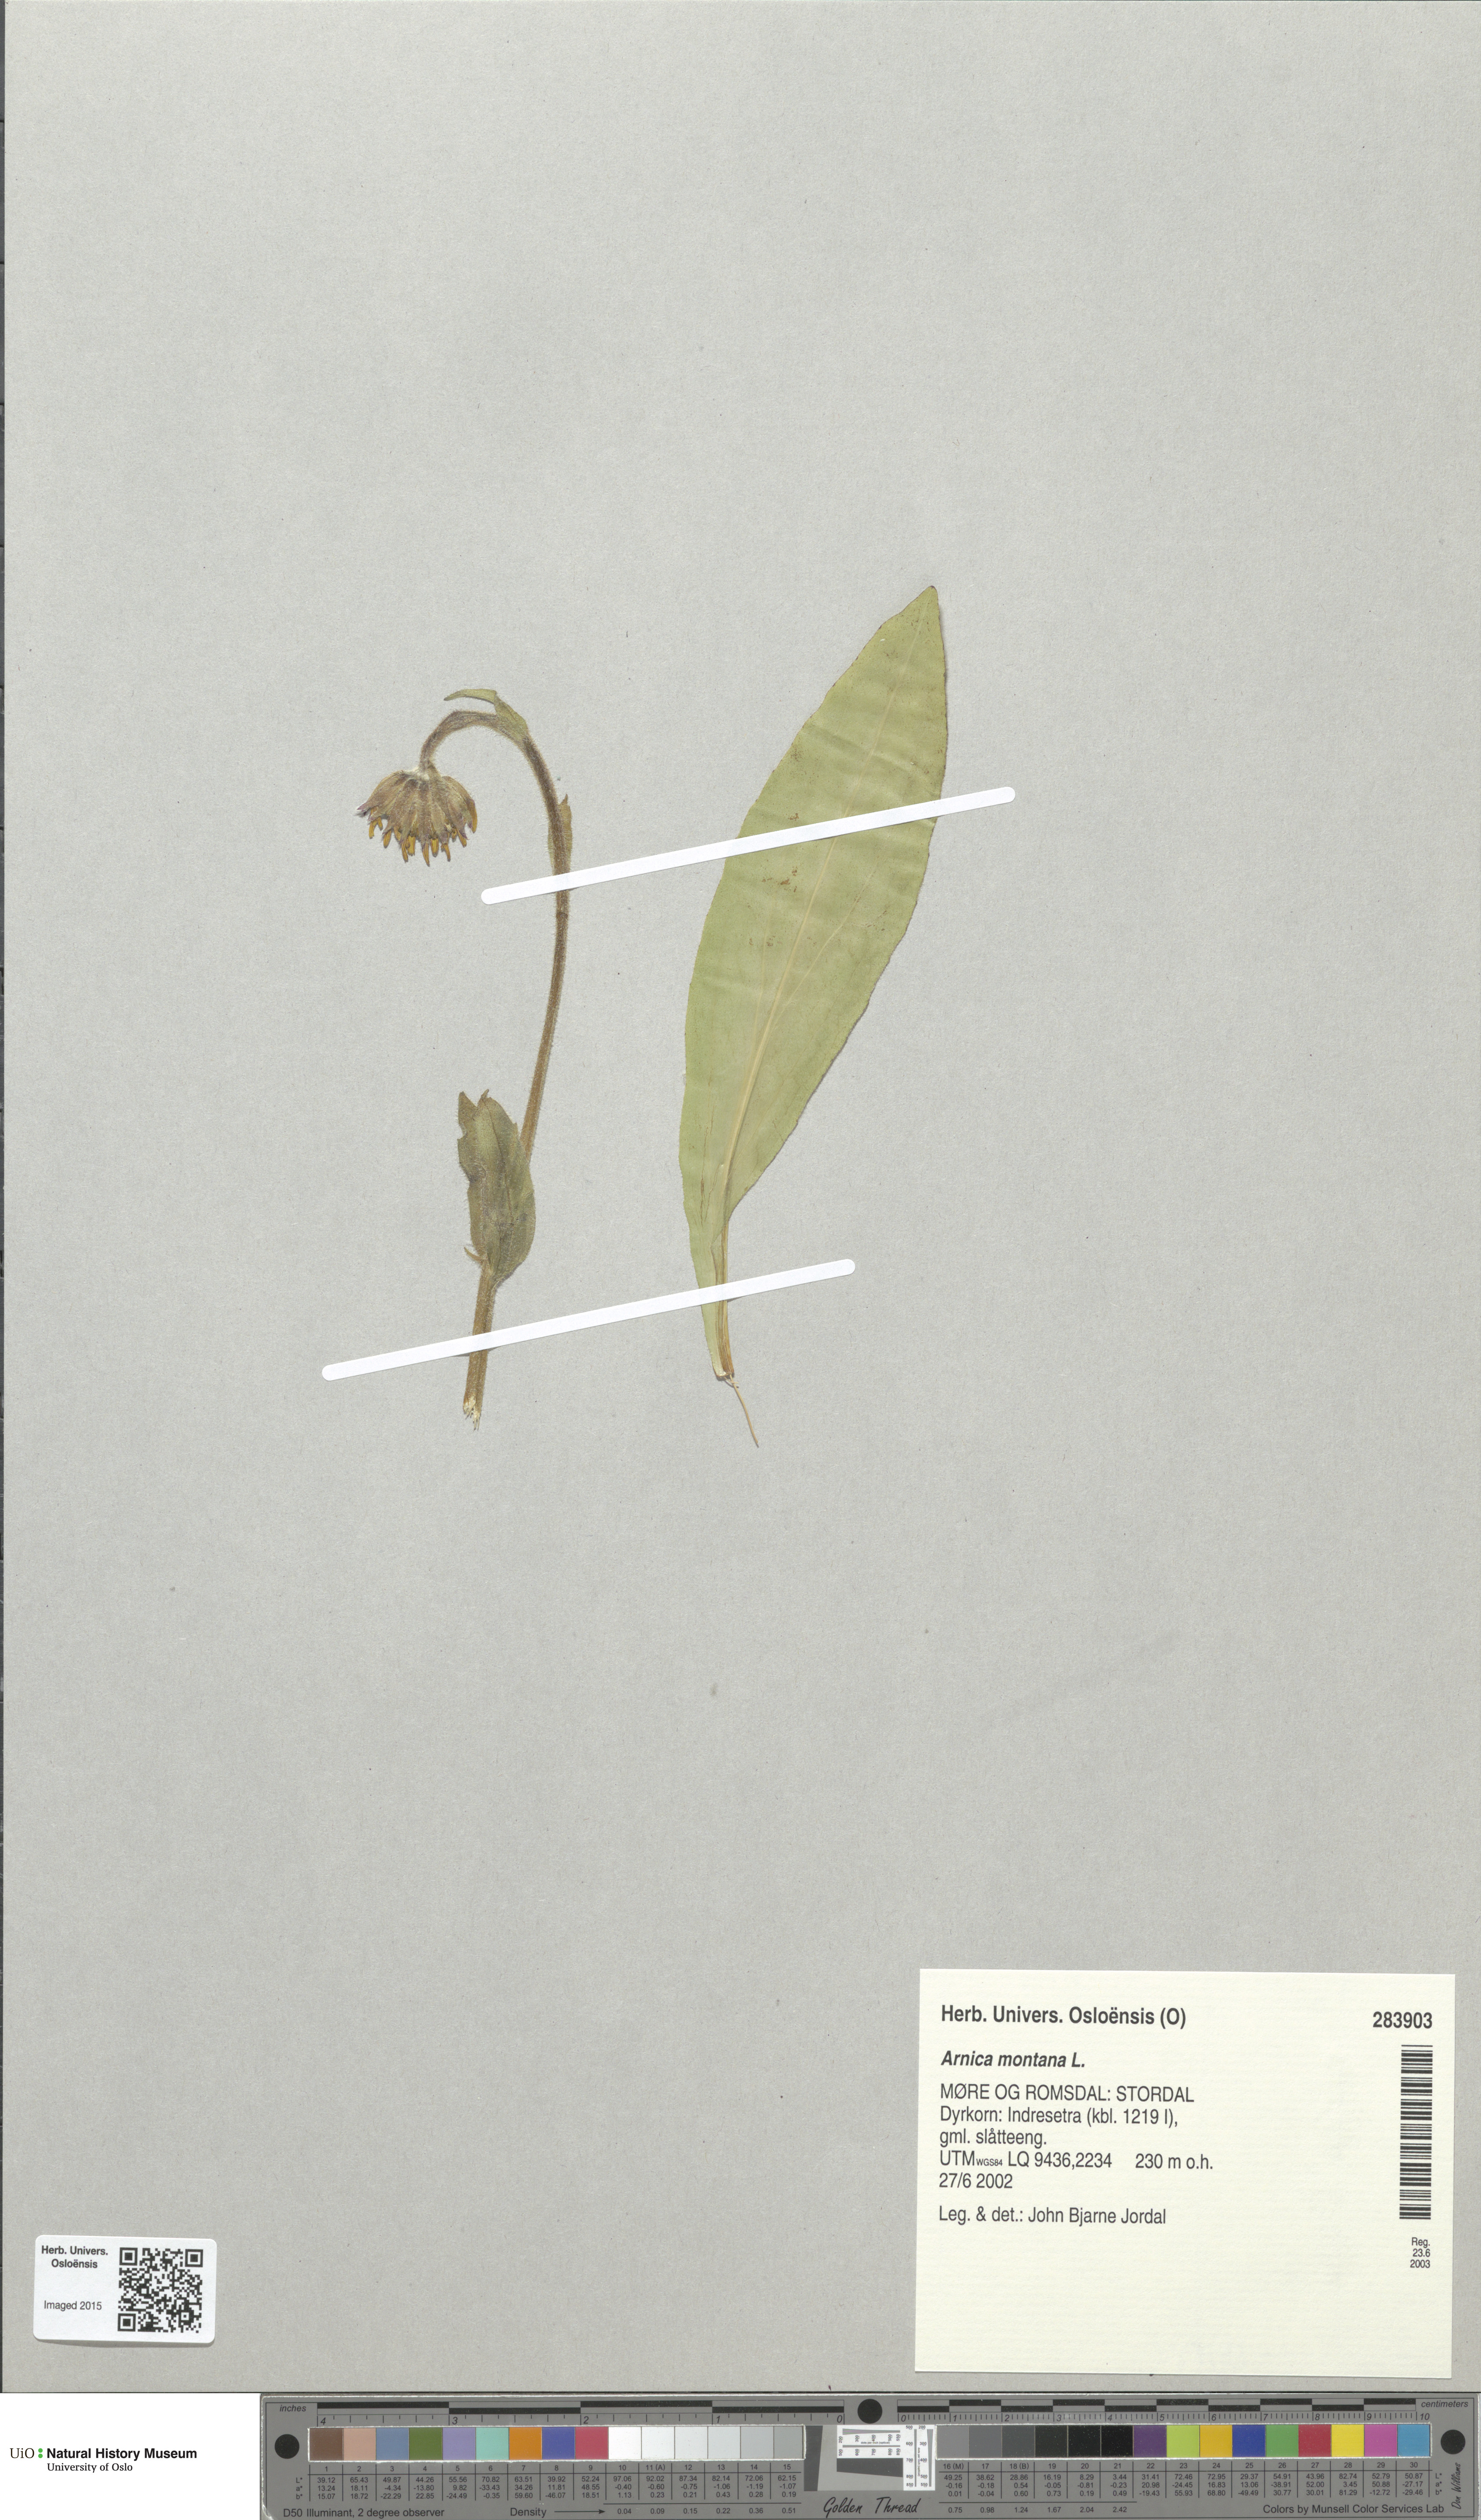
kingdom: Plantae
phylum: Tracheophyta
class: Magnoliopsida
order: Asterales
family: Asteraceae
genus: Arnica
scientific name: Arnica montana
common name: Leopard's bane
